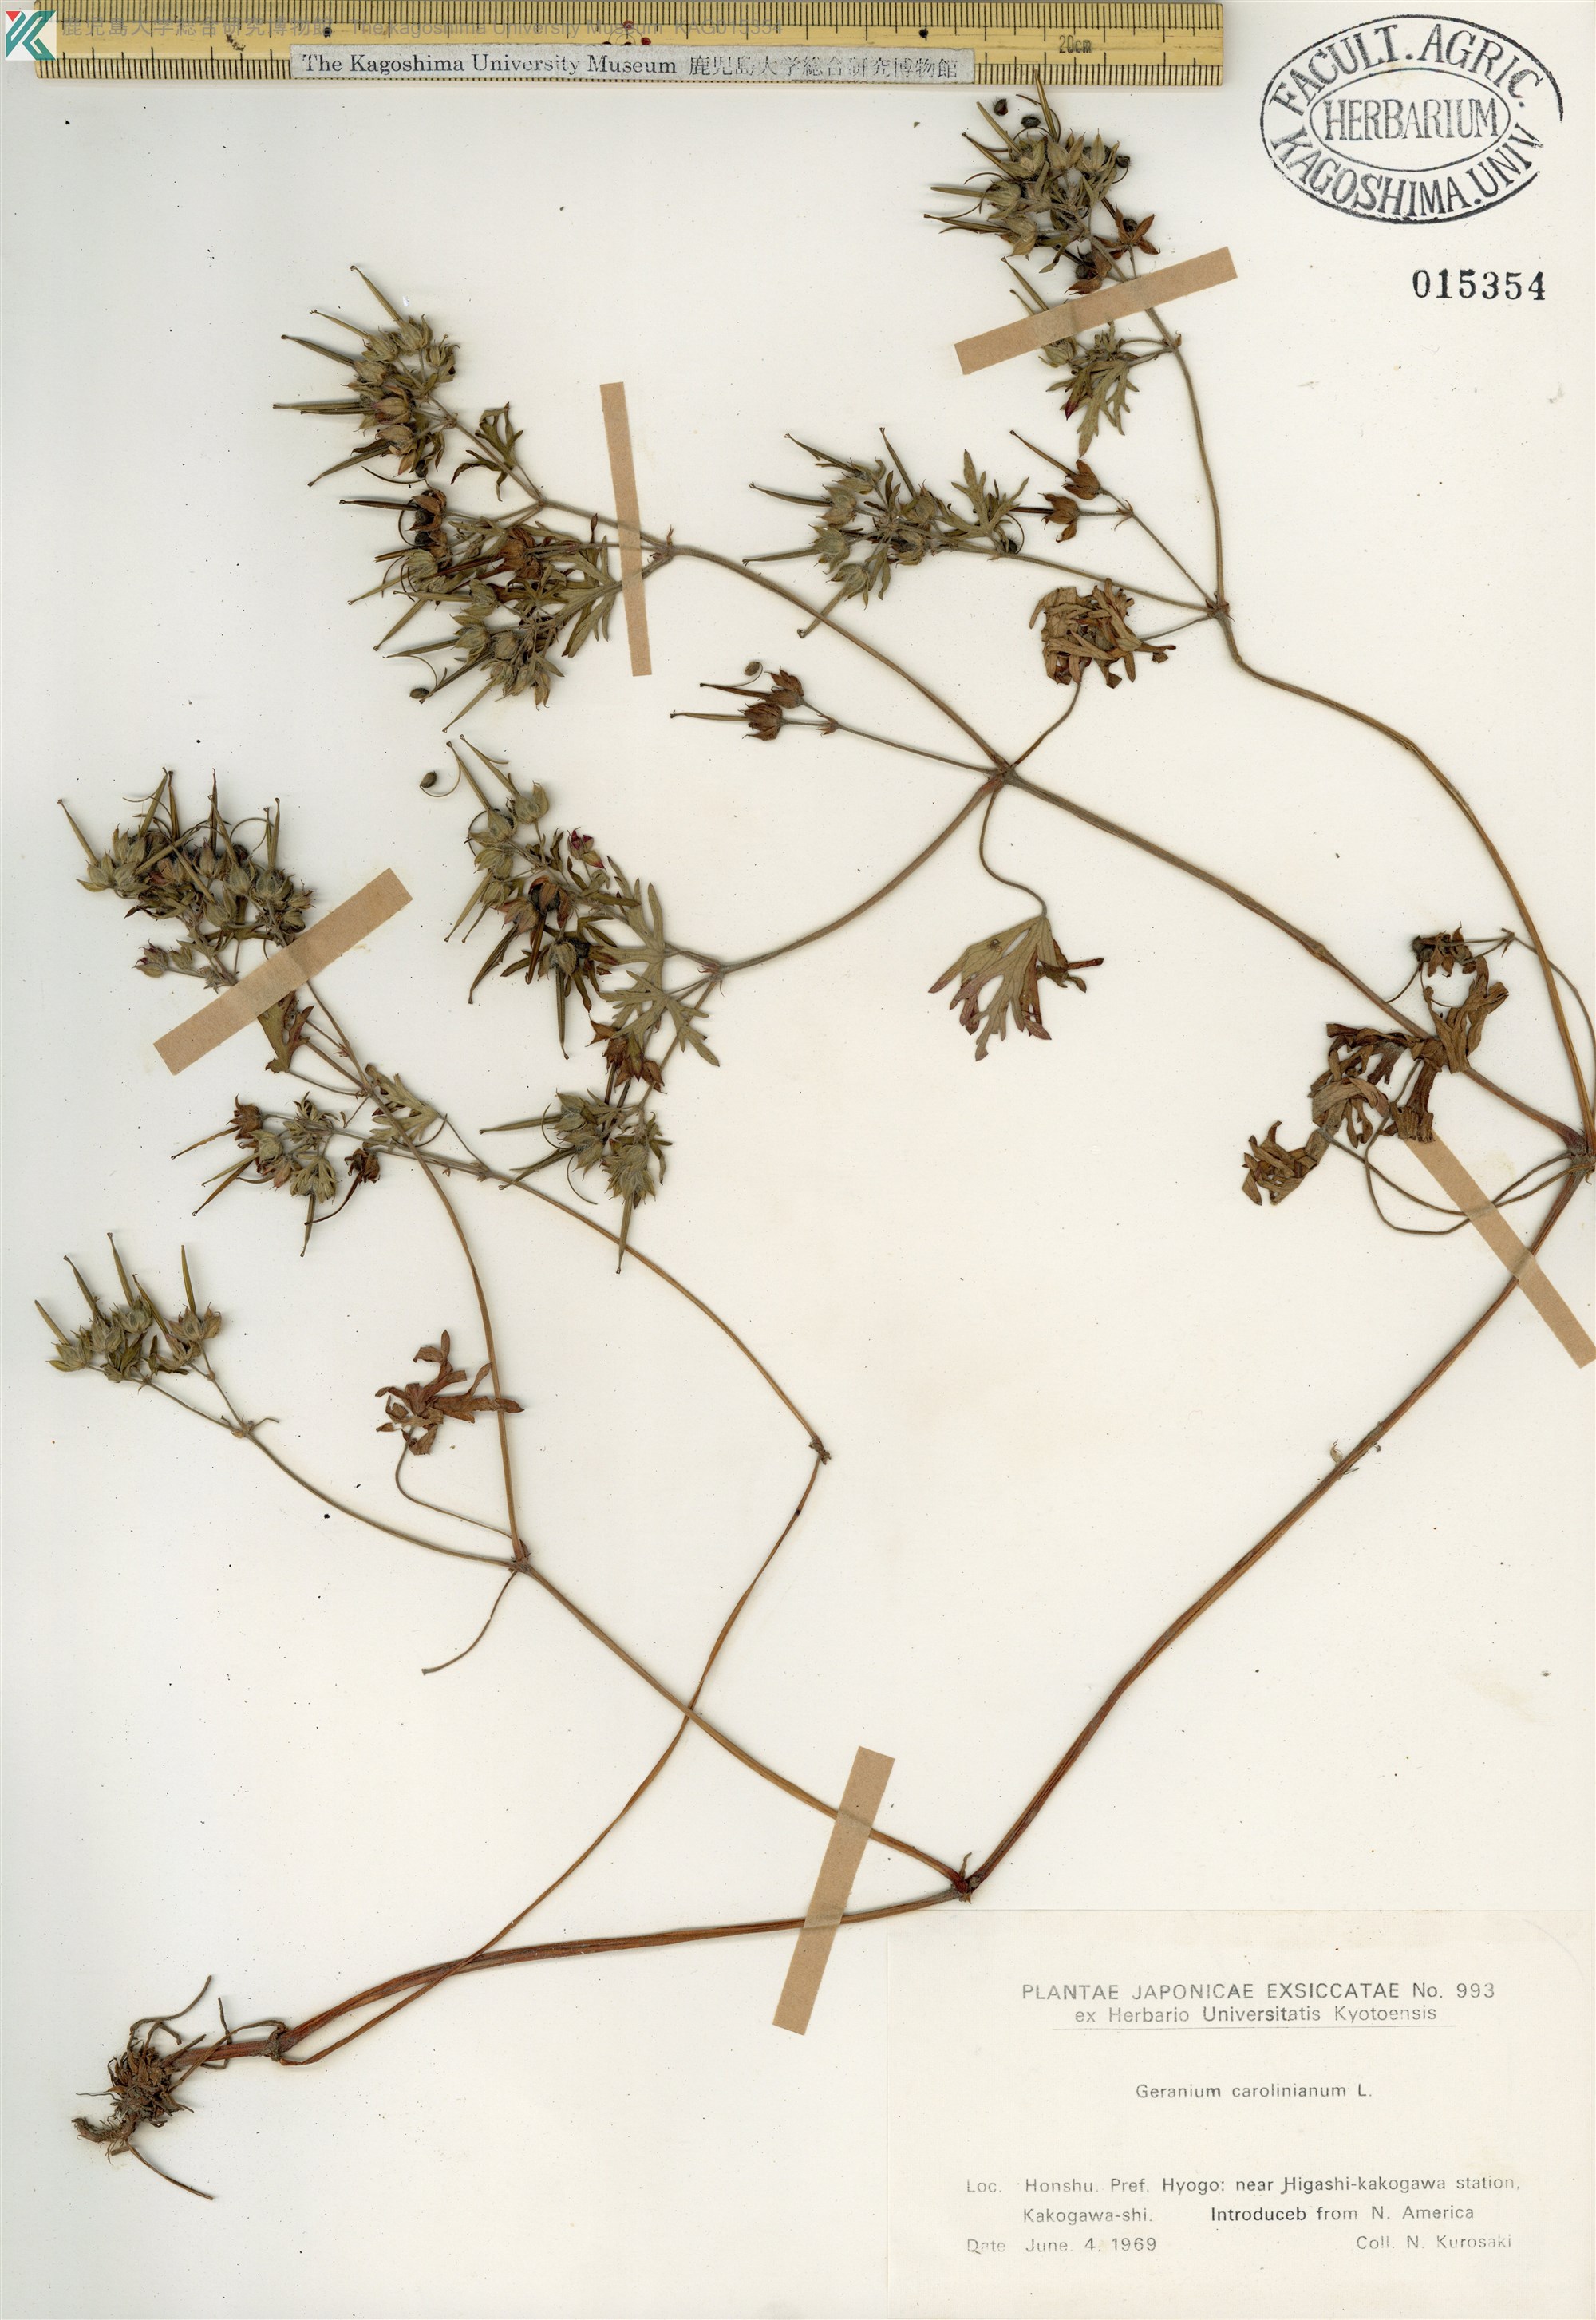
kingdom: Plantae
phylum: Tracheophyta
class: Magnoliopsida
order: Geraniales
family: Geraniaceae
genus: Geranium
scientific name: Geranium carolinianum
